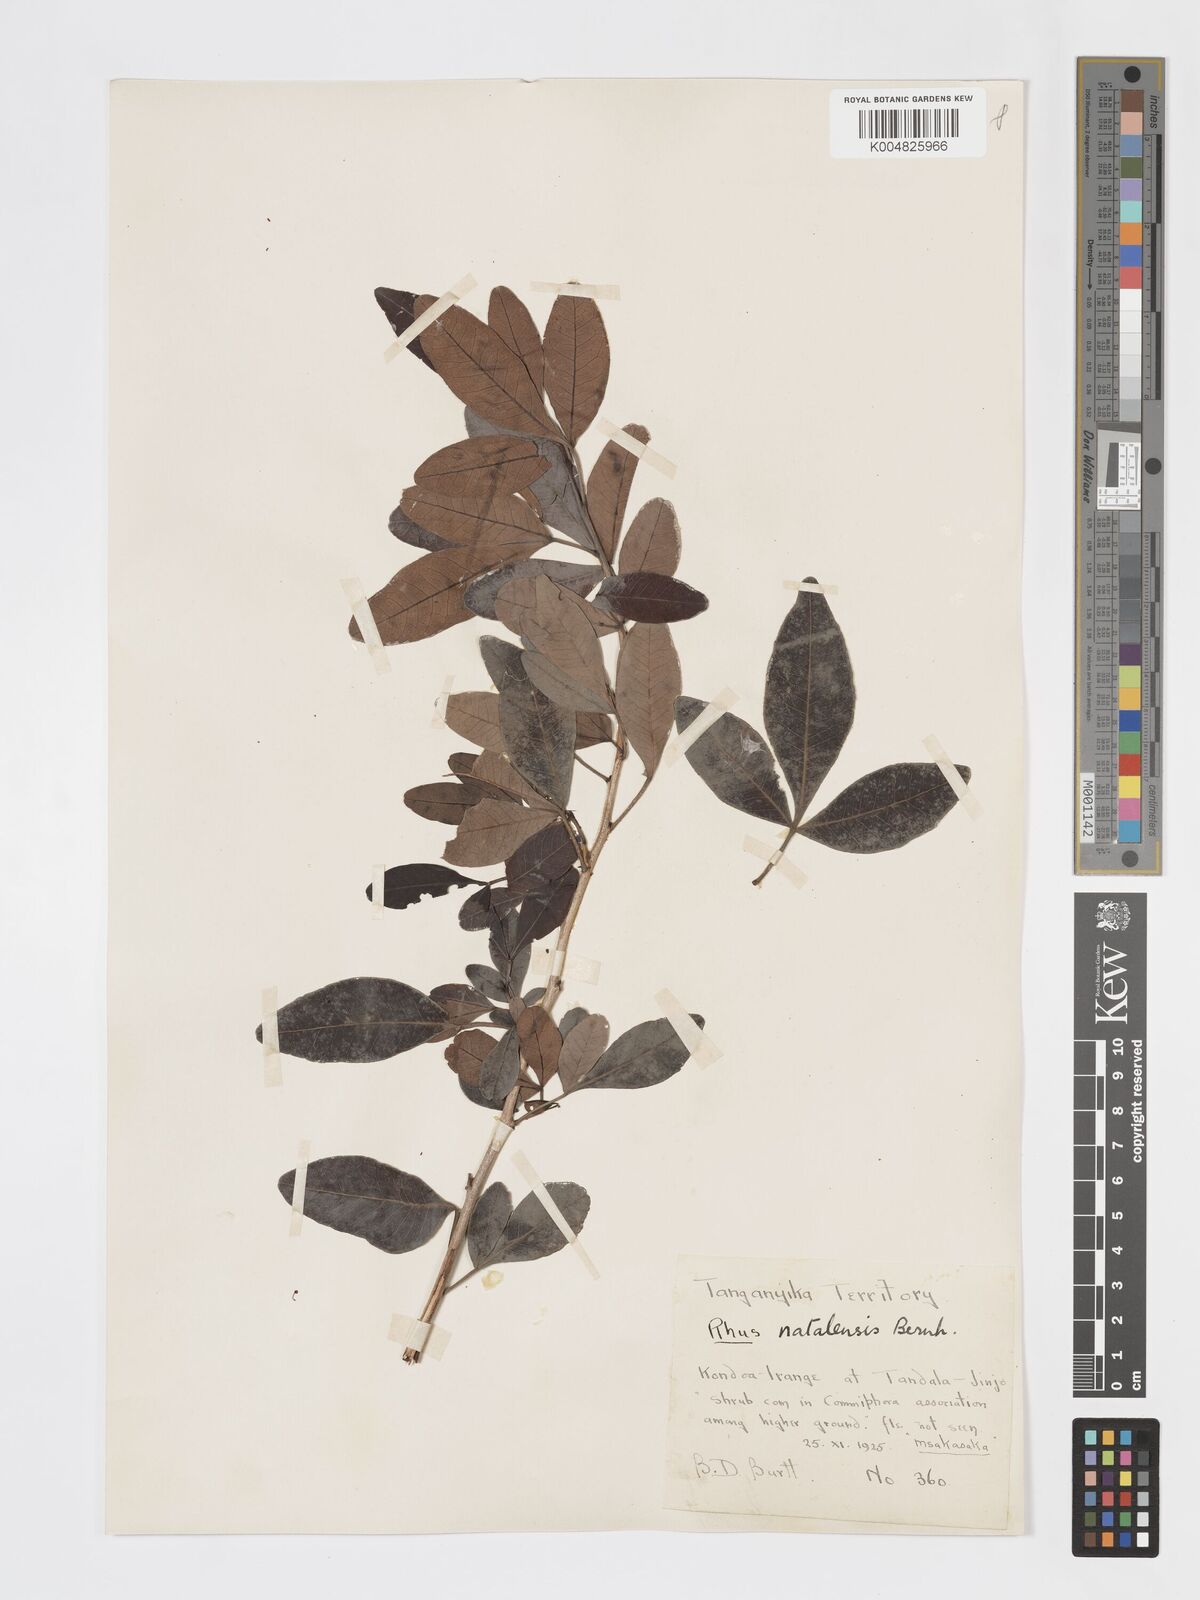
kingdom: Plantae
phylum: Tracheophyta
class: Magnoliopsida
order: Sapindales
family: Anacardiaceae
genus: Searsia
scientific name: Searsia natalensis
